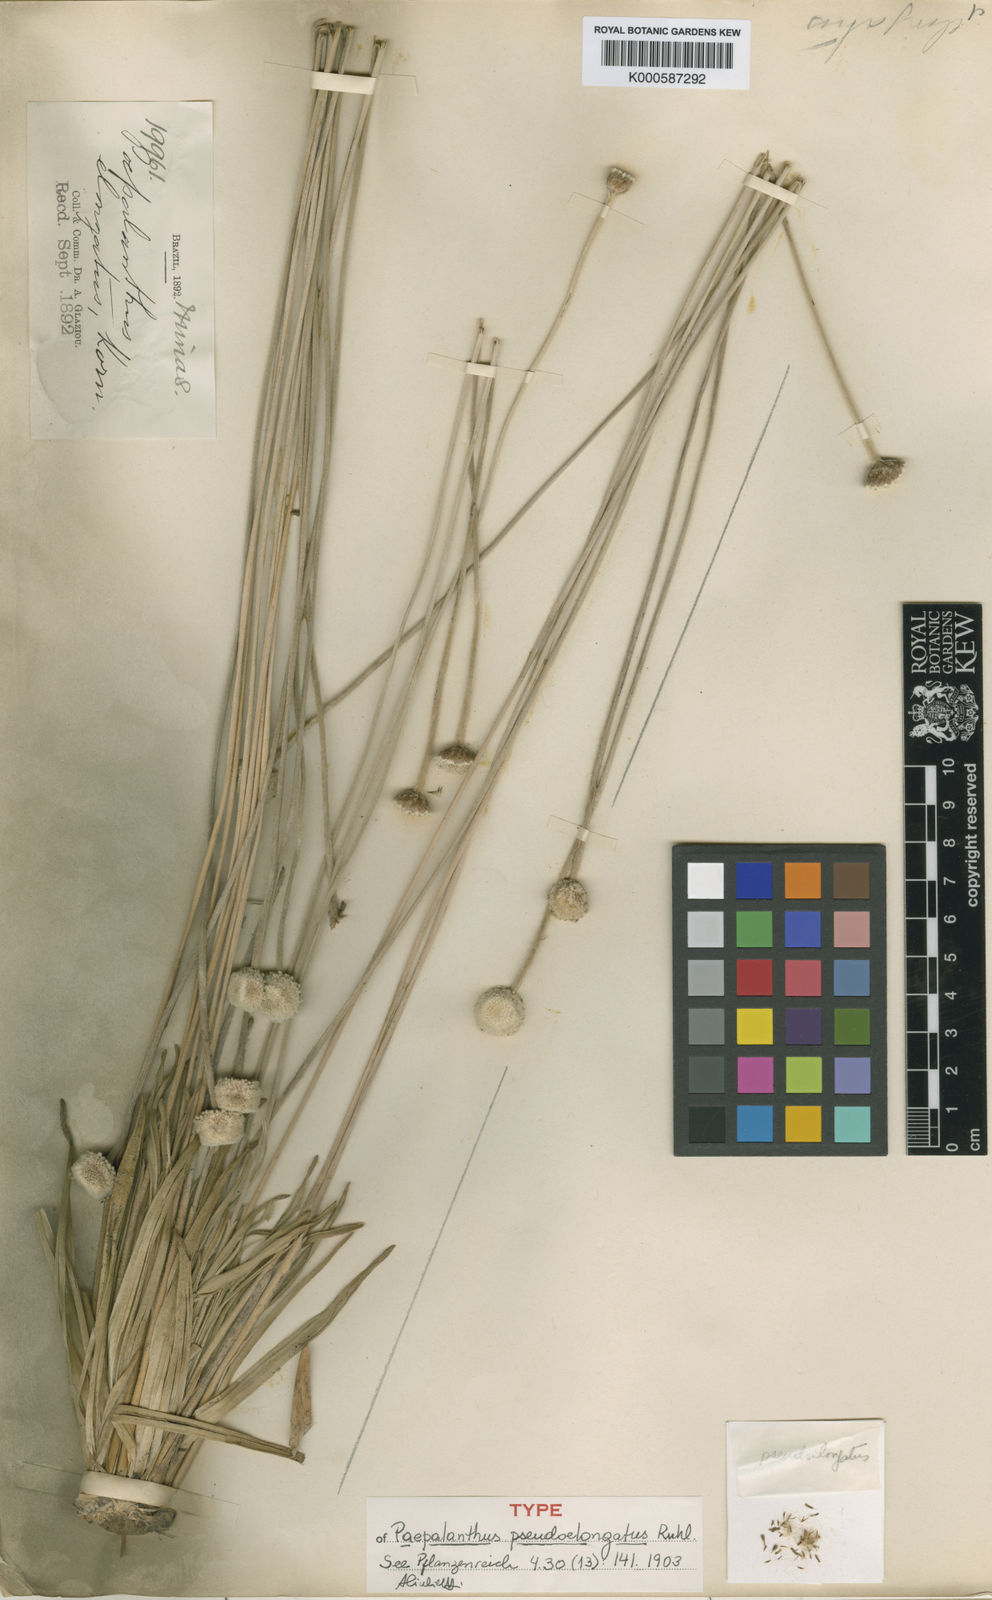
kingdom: Plantae
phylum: Tracheophyta
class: Liliopsida
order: Poales
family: Eriocaulaceae
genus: Paepalanthus
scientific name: Paepalanthus
